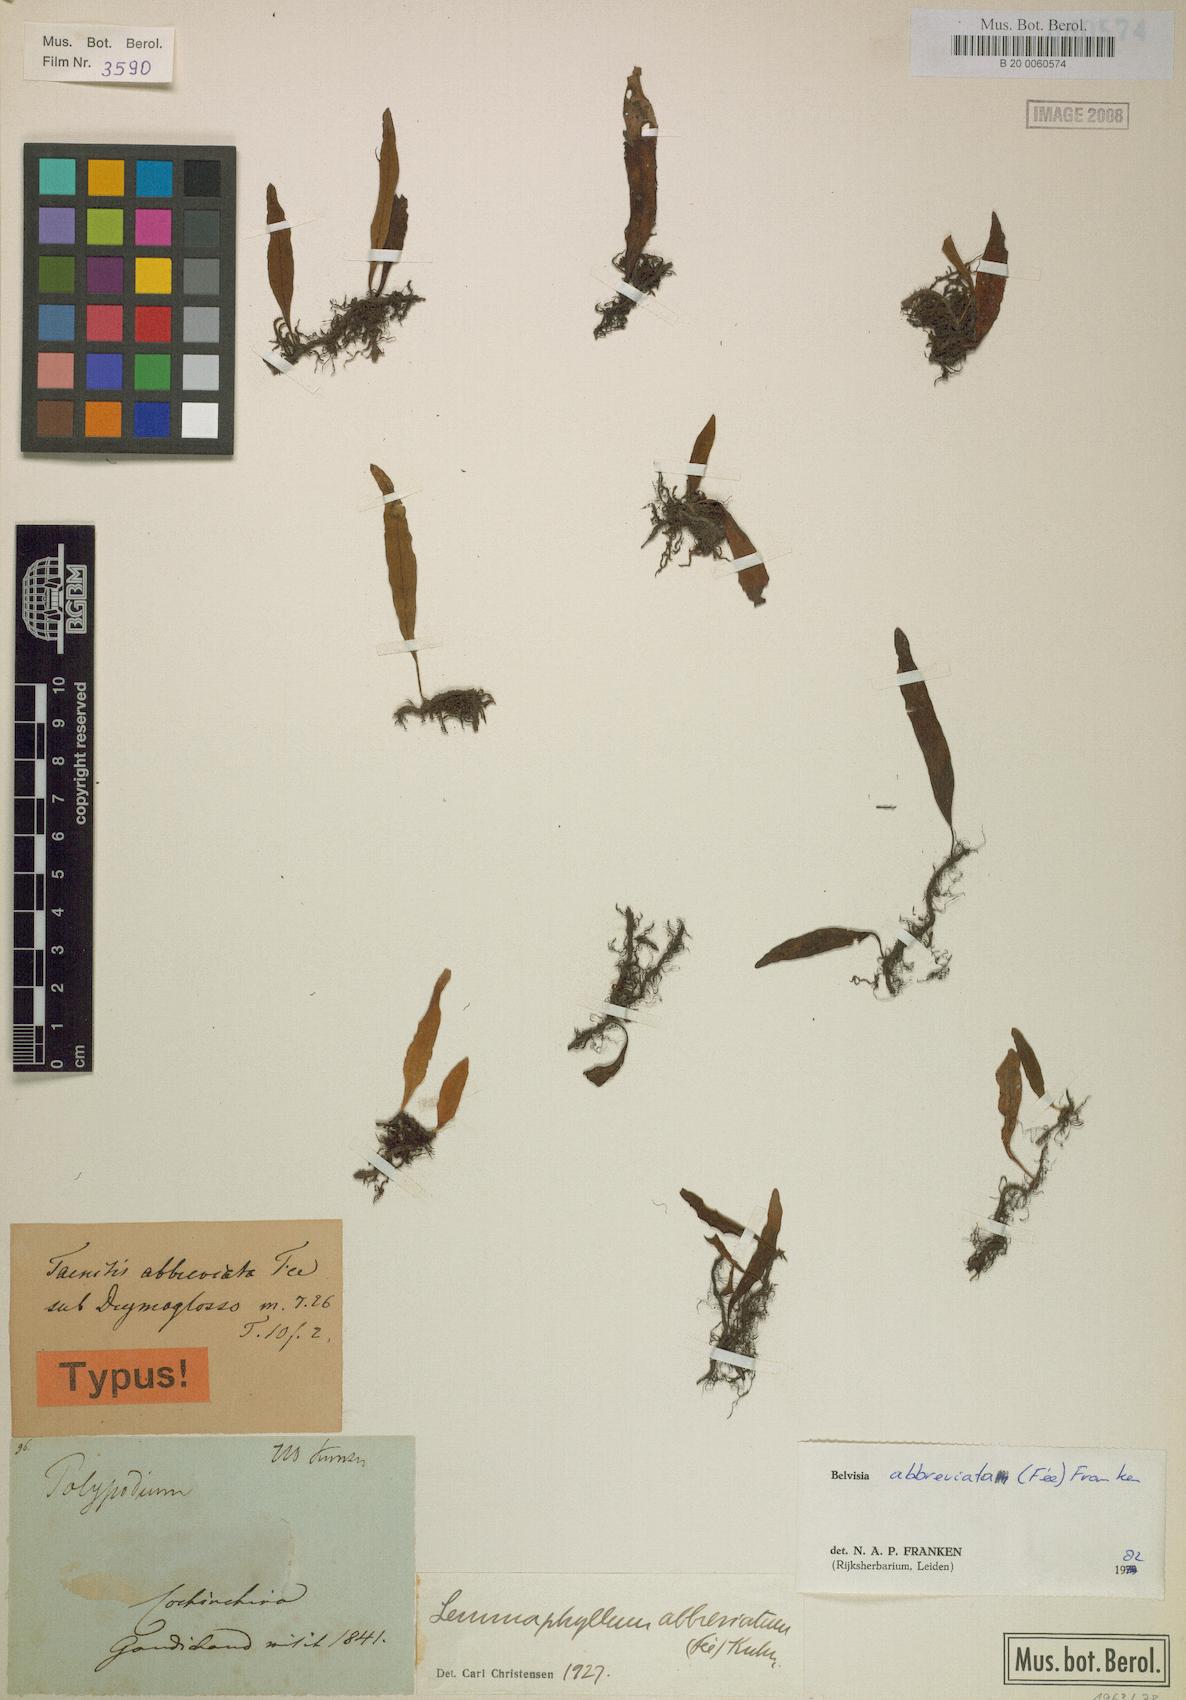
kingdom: Plantae
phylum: Tracheophyta
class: Polypodiopsida
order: Polypodiales
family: Polypodiaceae
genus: Lepisorus
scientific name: Lepisorus abbreviatus
